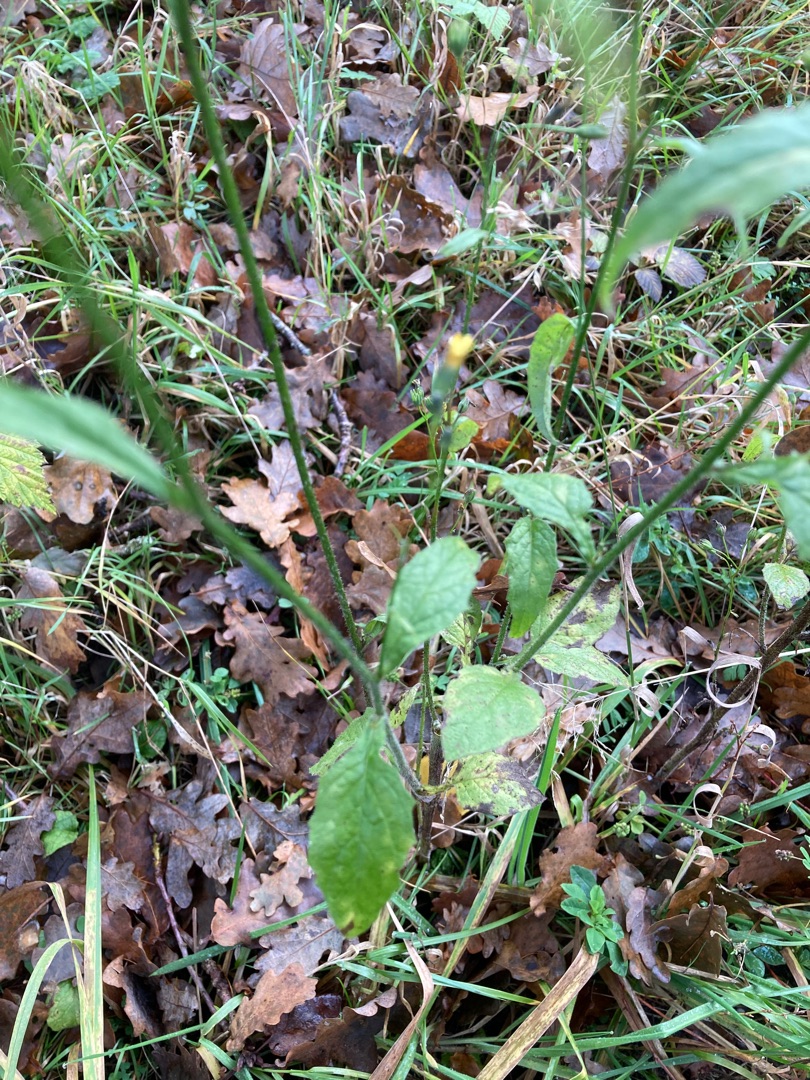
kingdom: Plantae
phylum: Tracheophyta
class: Magnoliopsida
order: Asterales
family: Asteraceae
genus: Lapsana
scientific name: Lapsana communis
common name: Haremad
